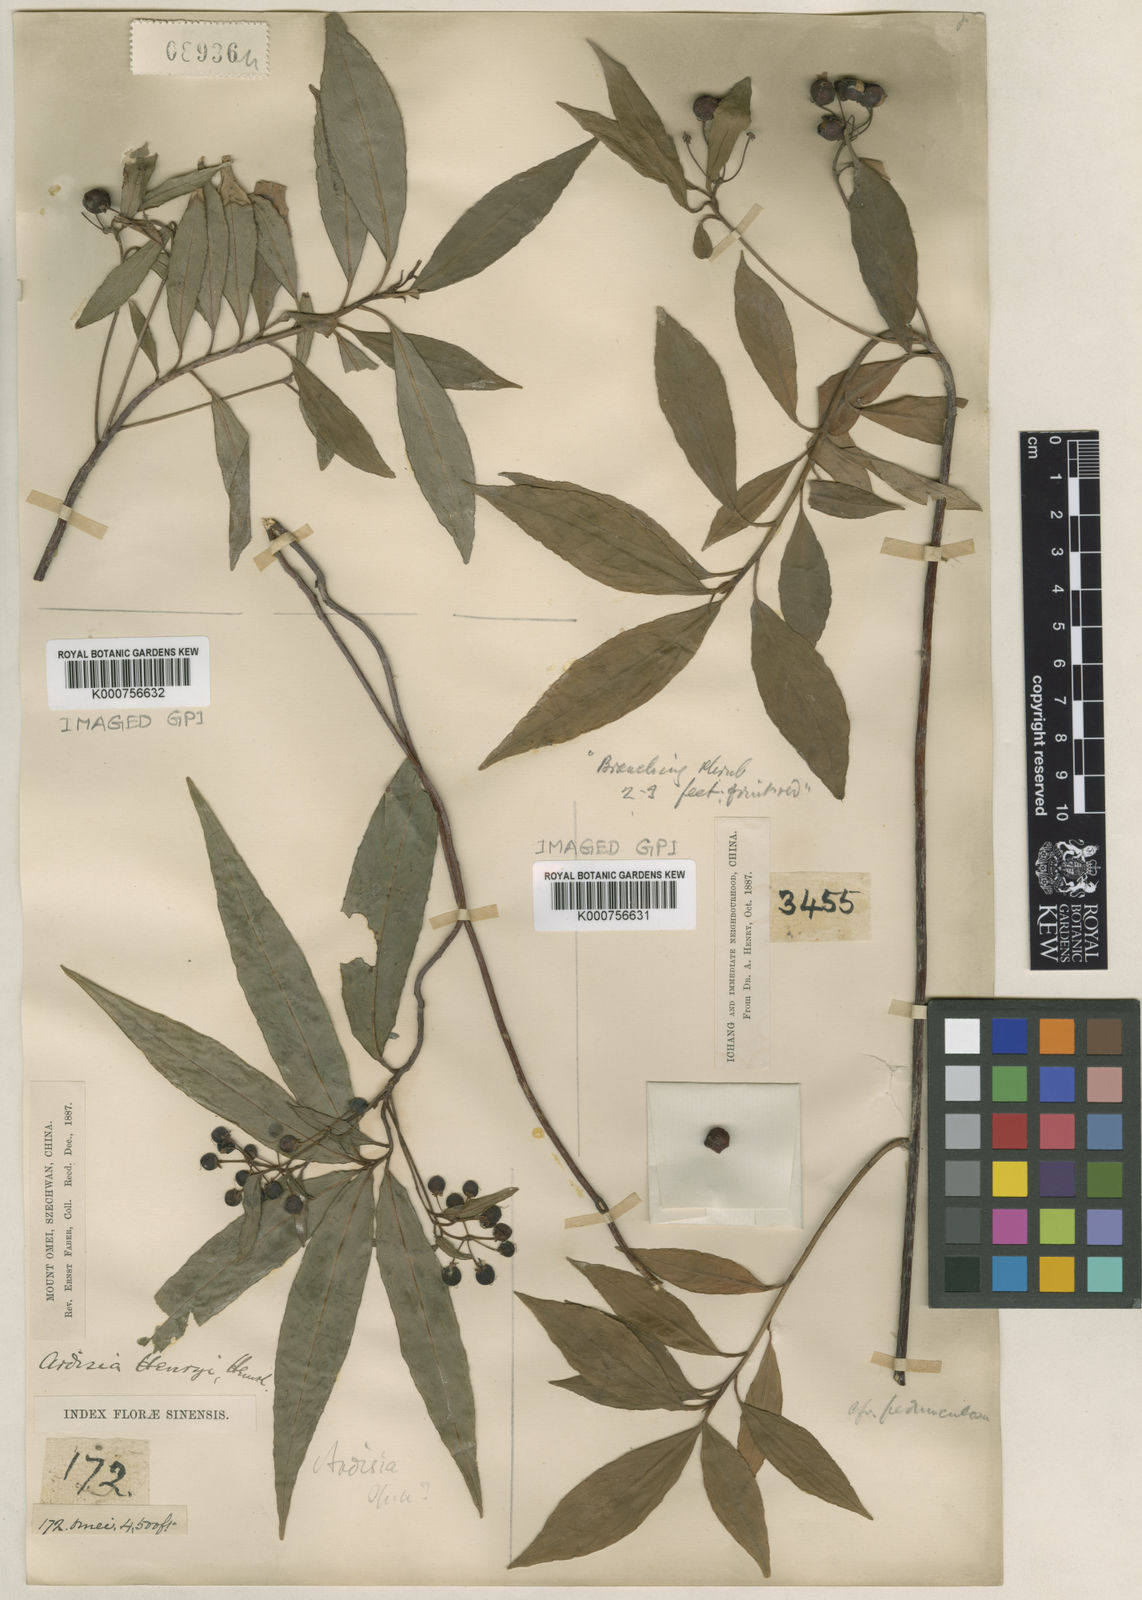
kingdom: Plantae
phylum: Tracheophyta
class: Magnoliopsida
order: Ericales
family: Primulaceae
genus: Ardisia
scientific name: Ardisia crispa
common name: Japanese-holly
